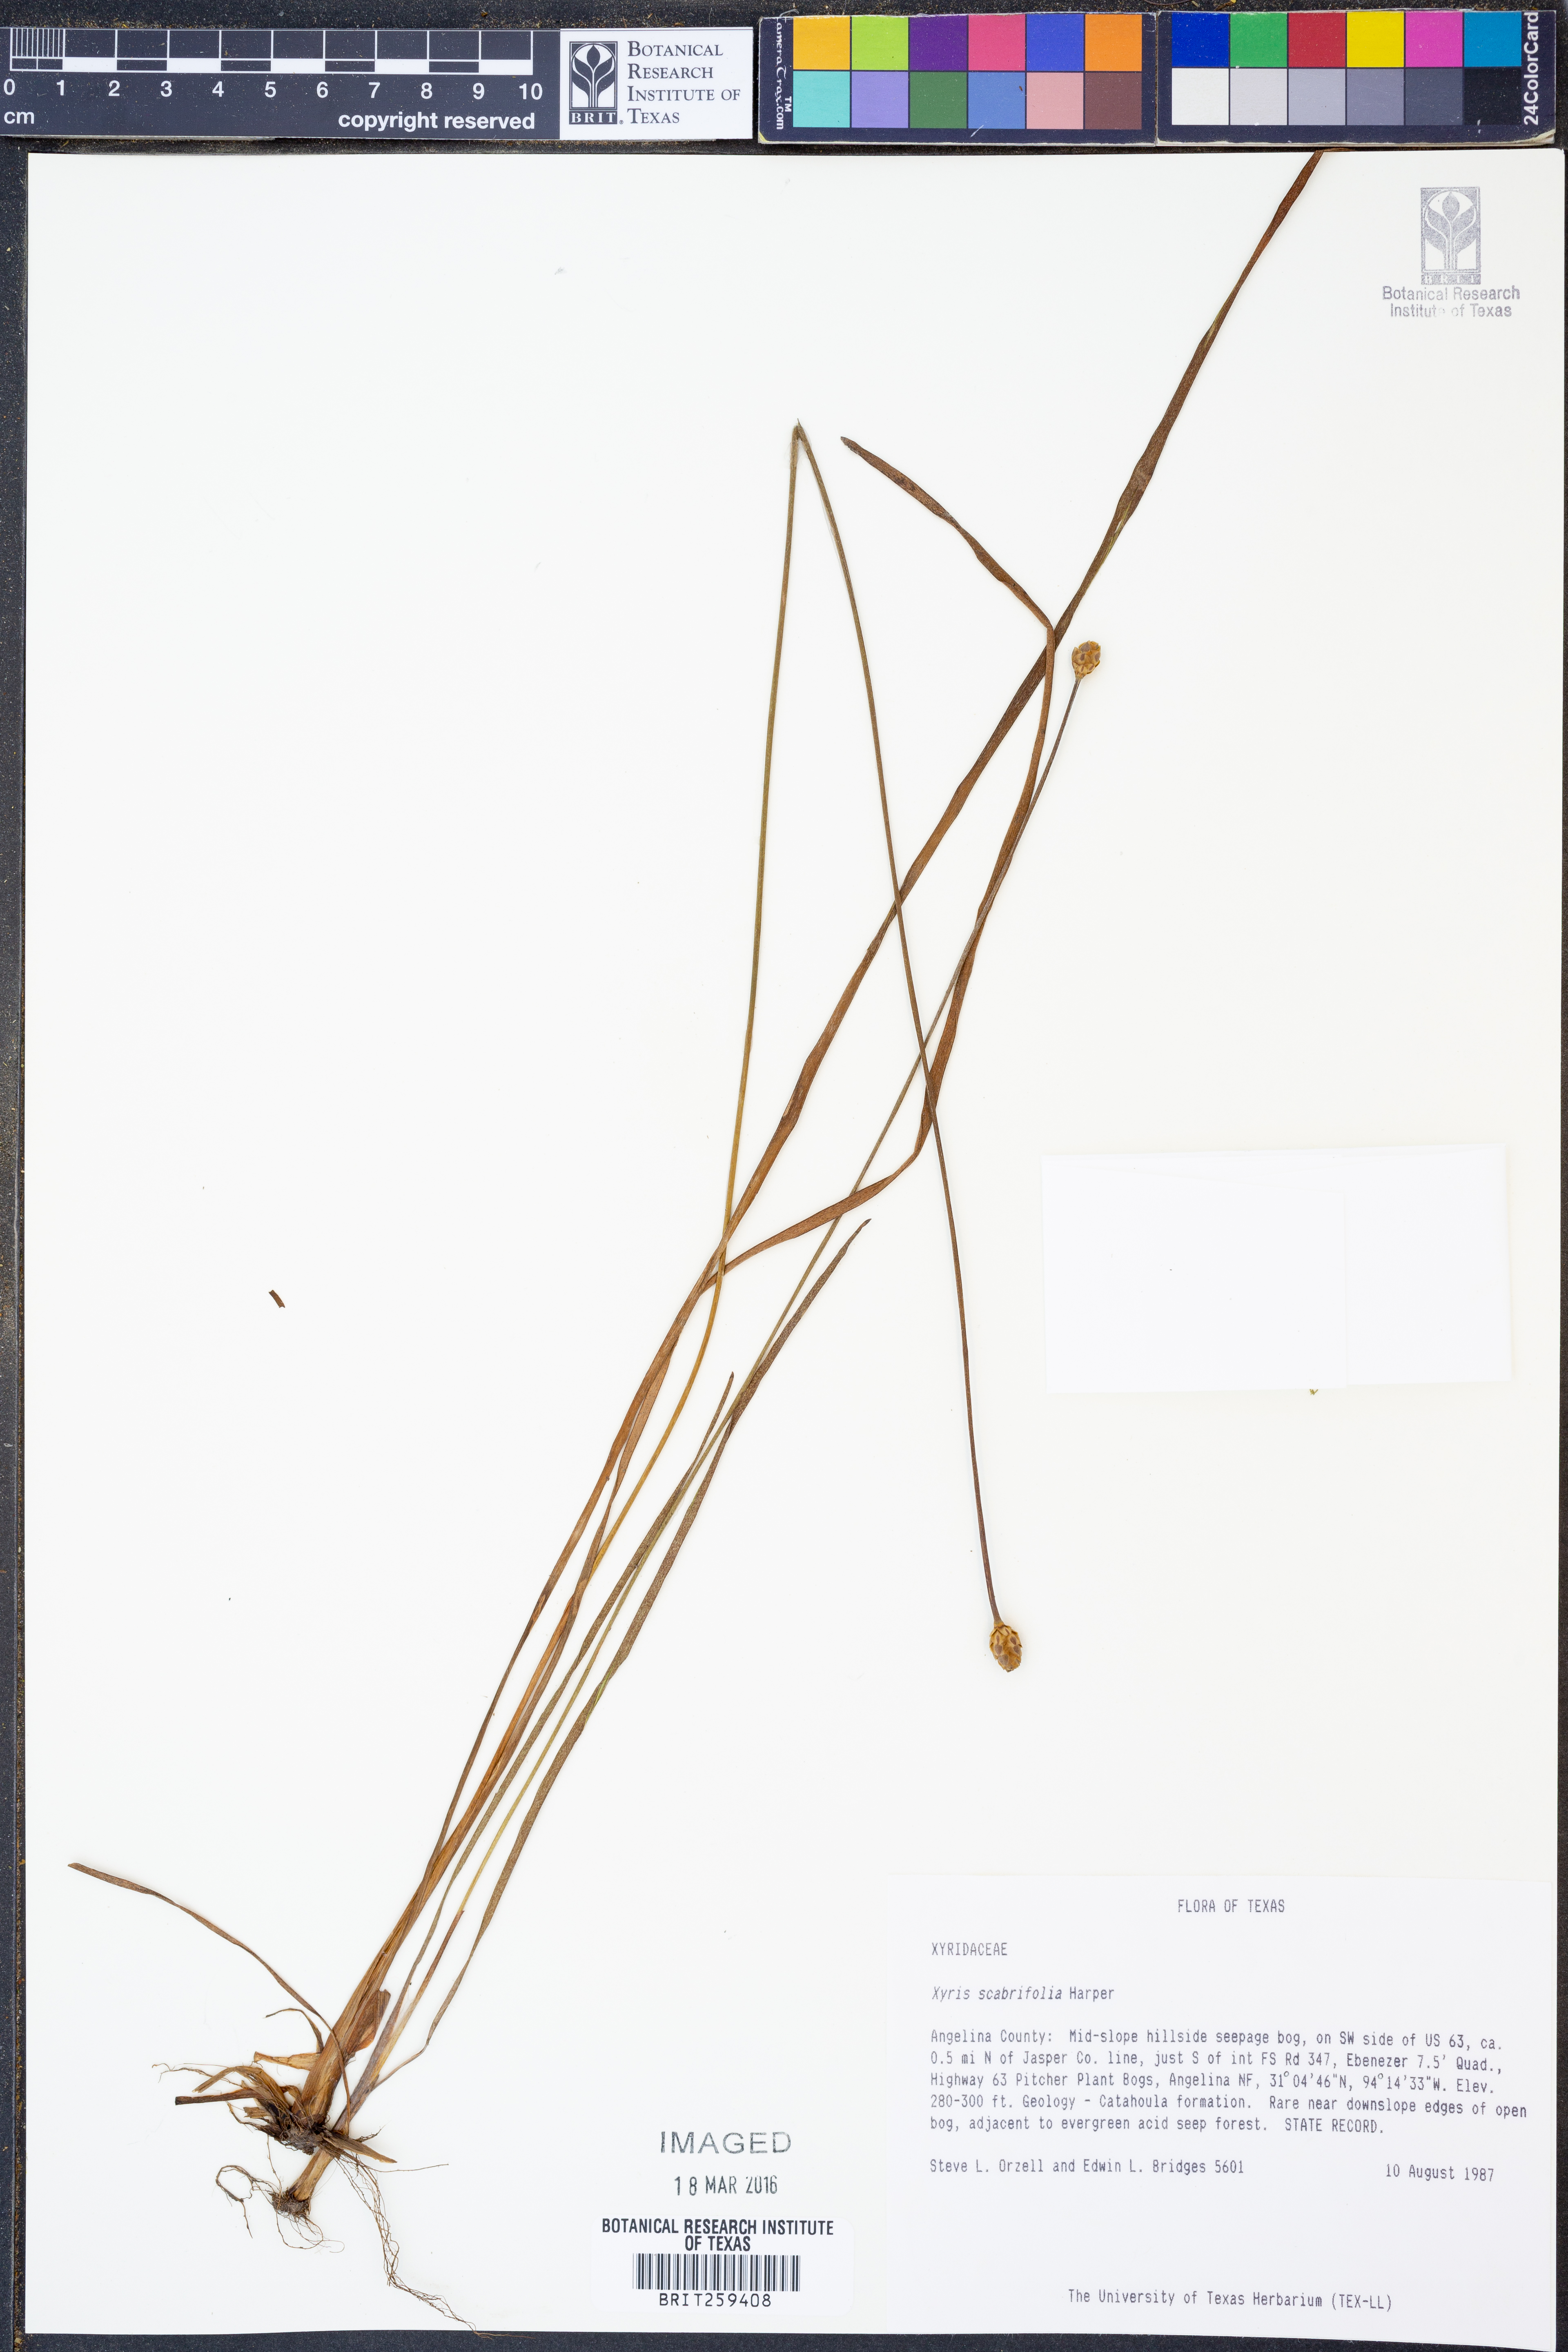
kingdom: Plantae
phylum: Tracheophyta
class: Liliopsida
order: Poales
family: Xyridaceae
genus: Xyris
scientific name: Xyris scabrifolia
